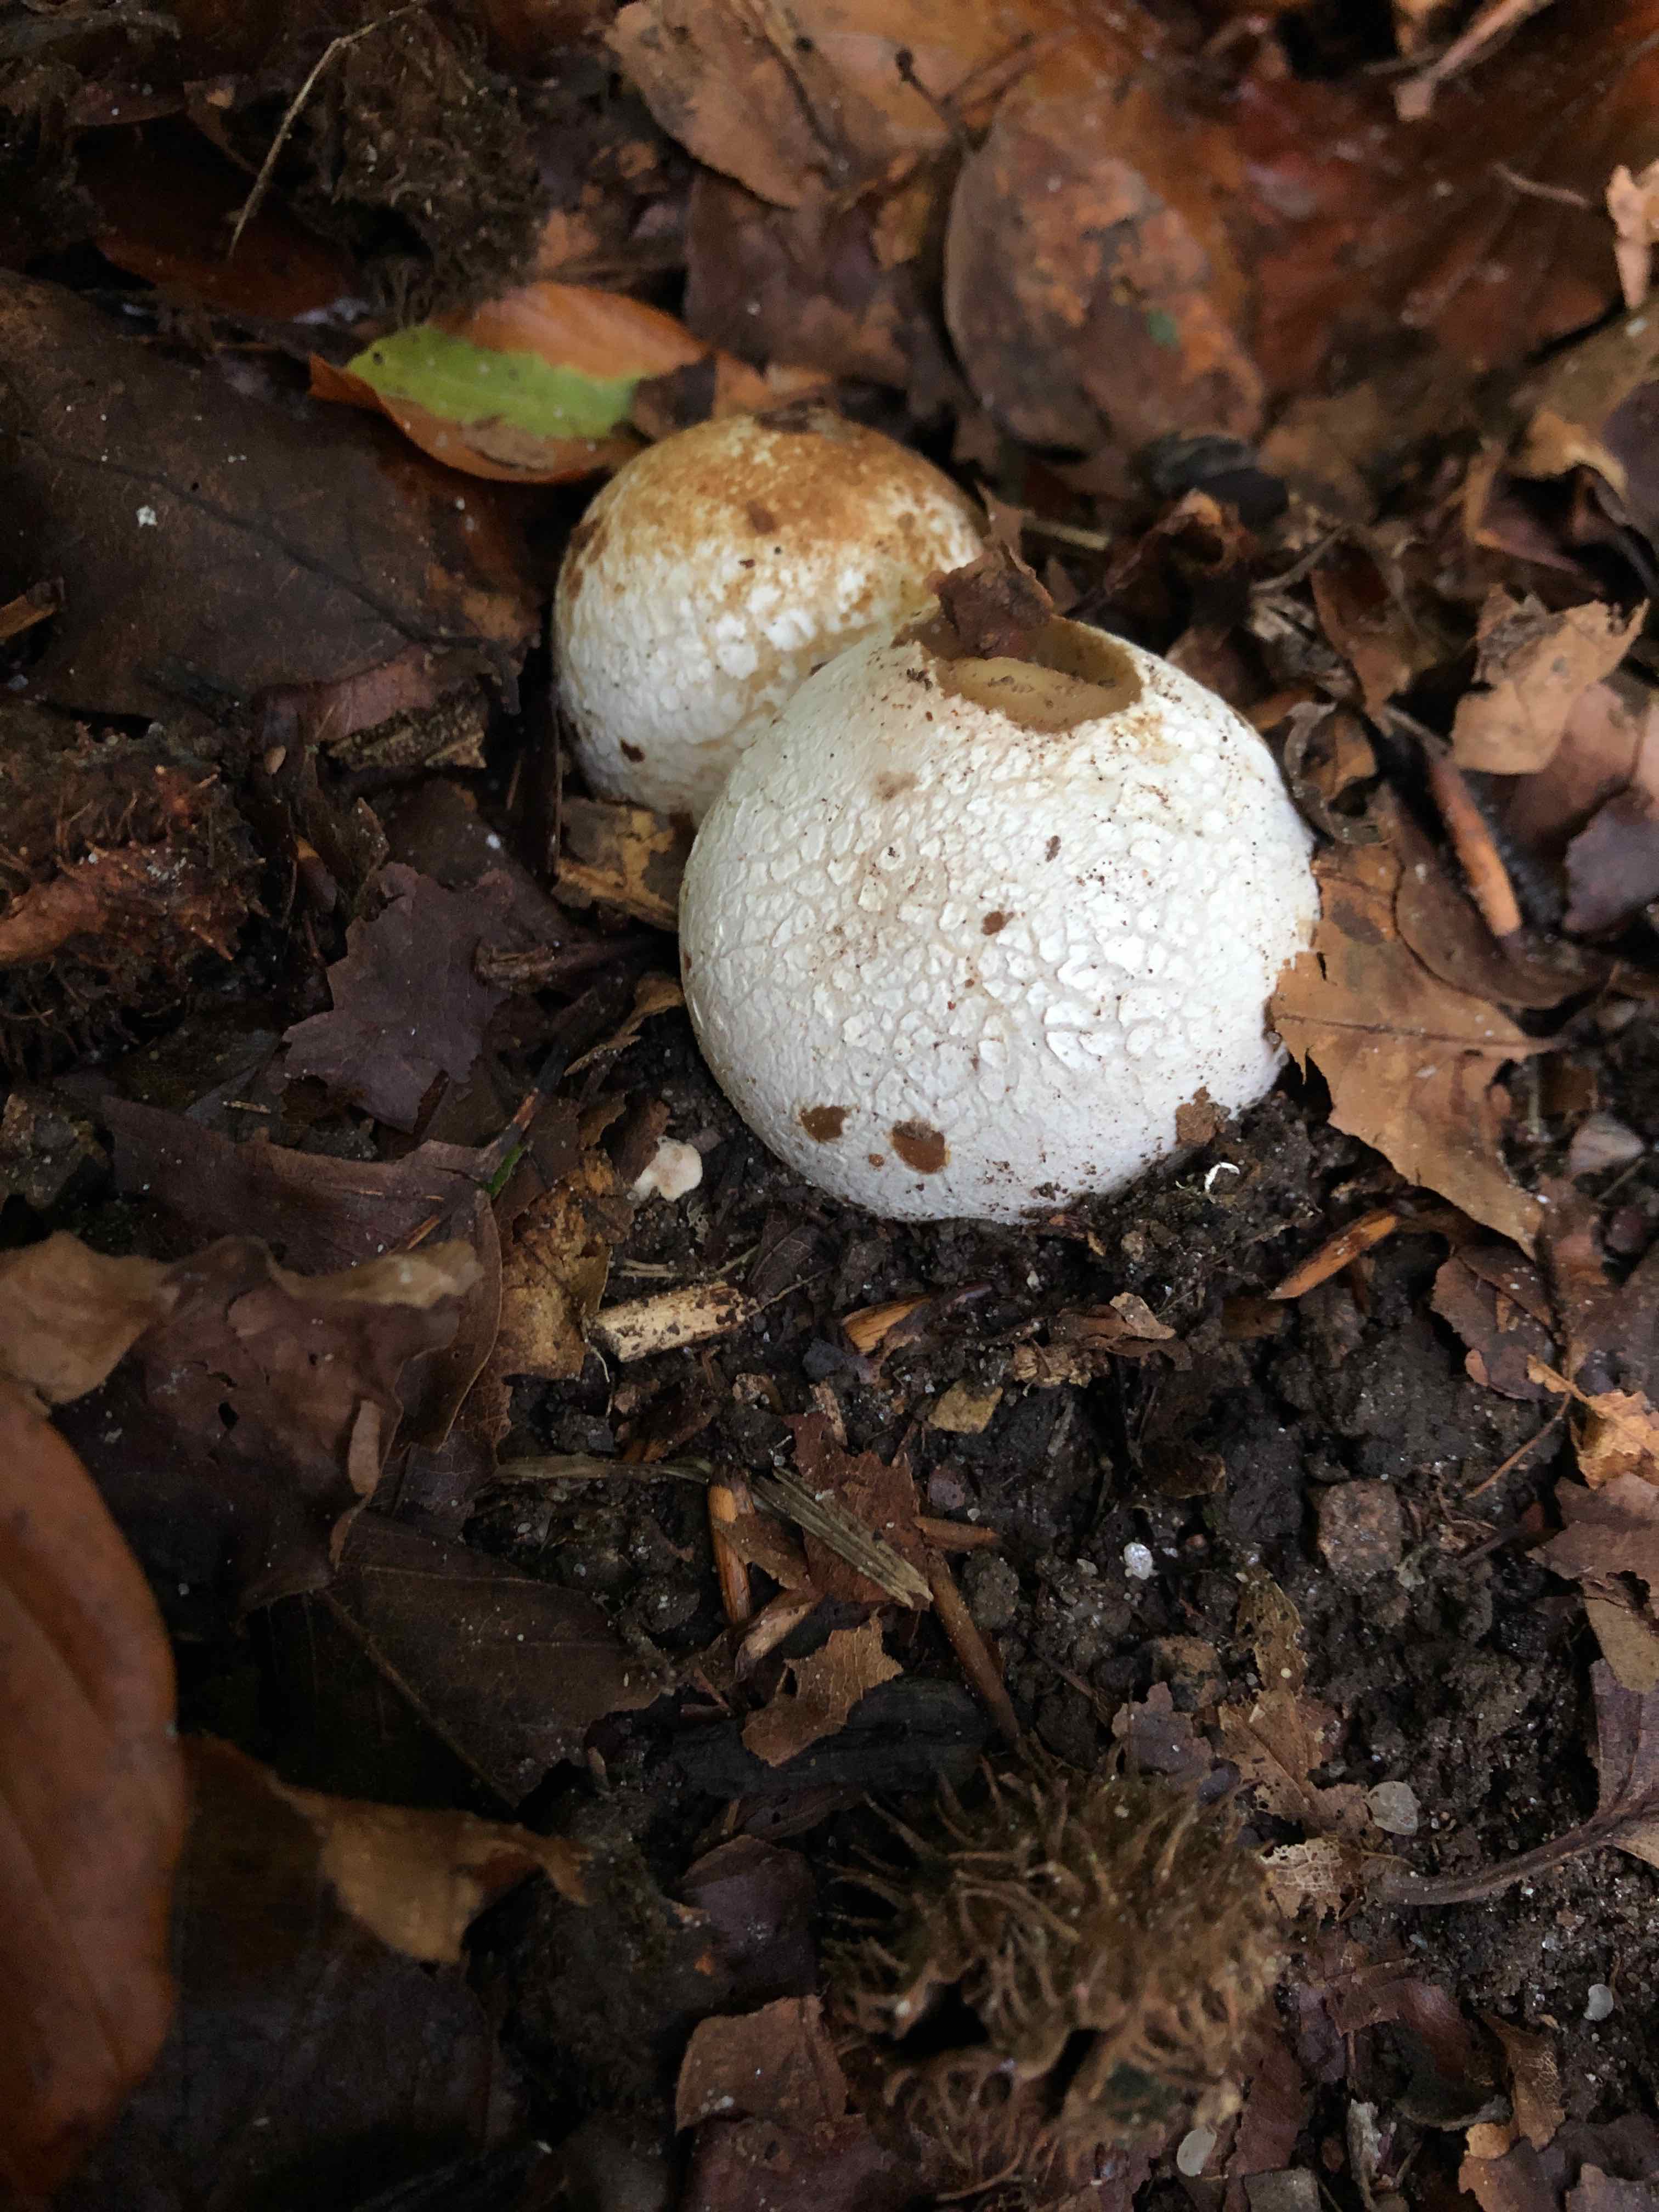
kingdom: Fungi
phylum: Basidiomycota
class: Agaricomycetes
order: Phallales
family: Phallaceae
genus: Phallus
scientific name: Phallus impudicus
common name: almindelig stinksvamp
